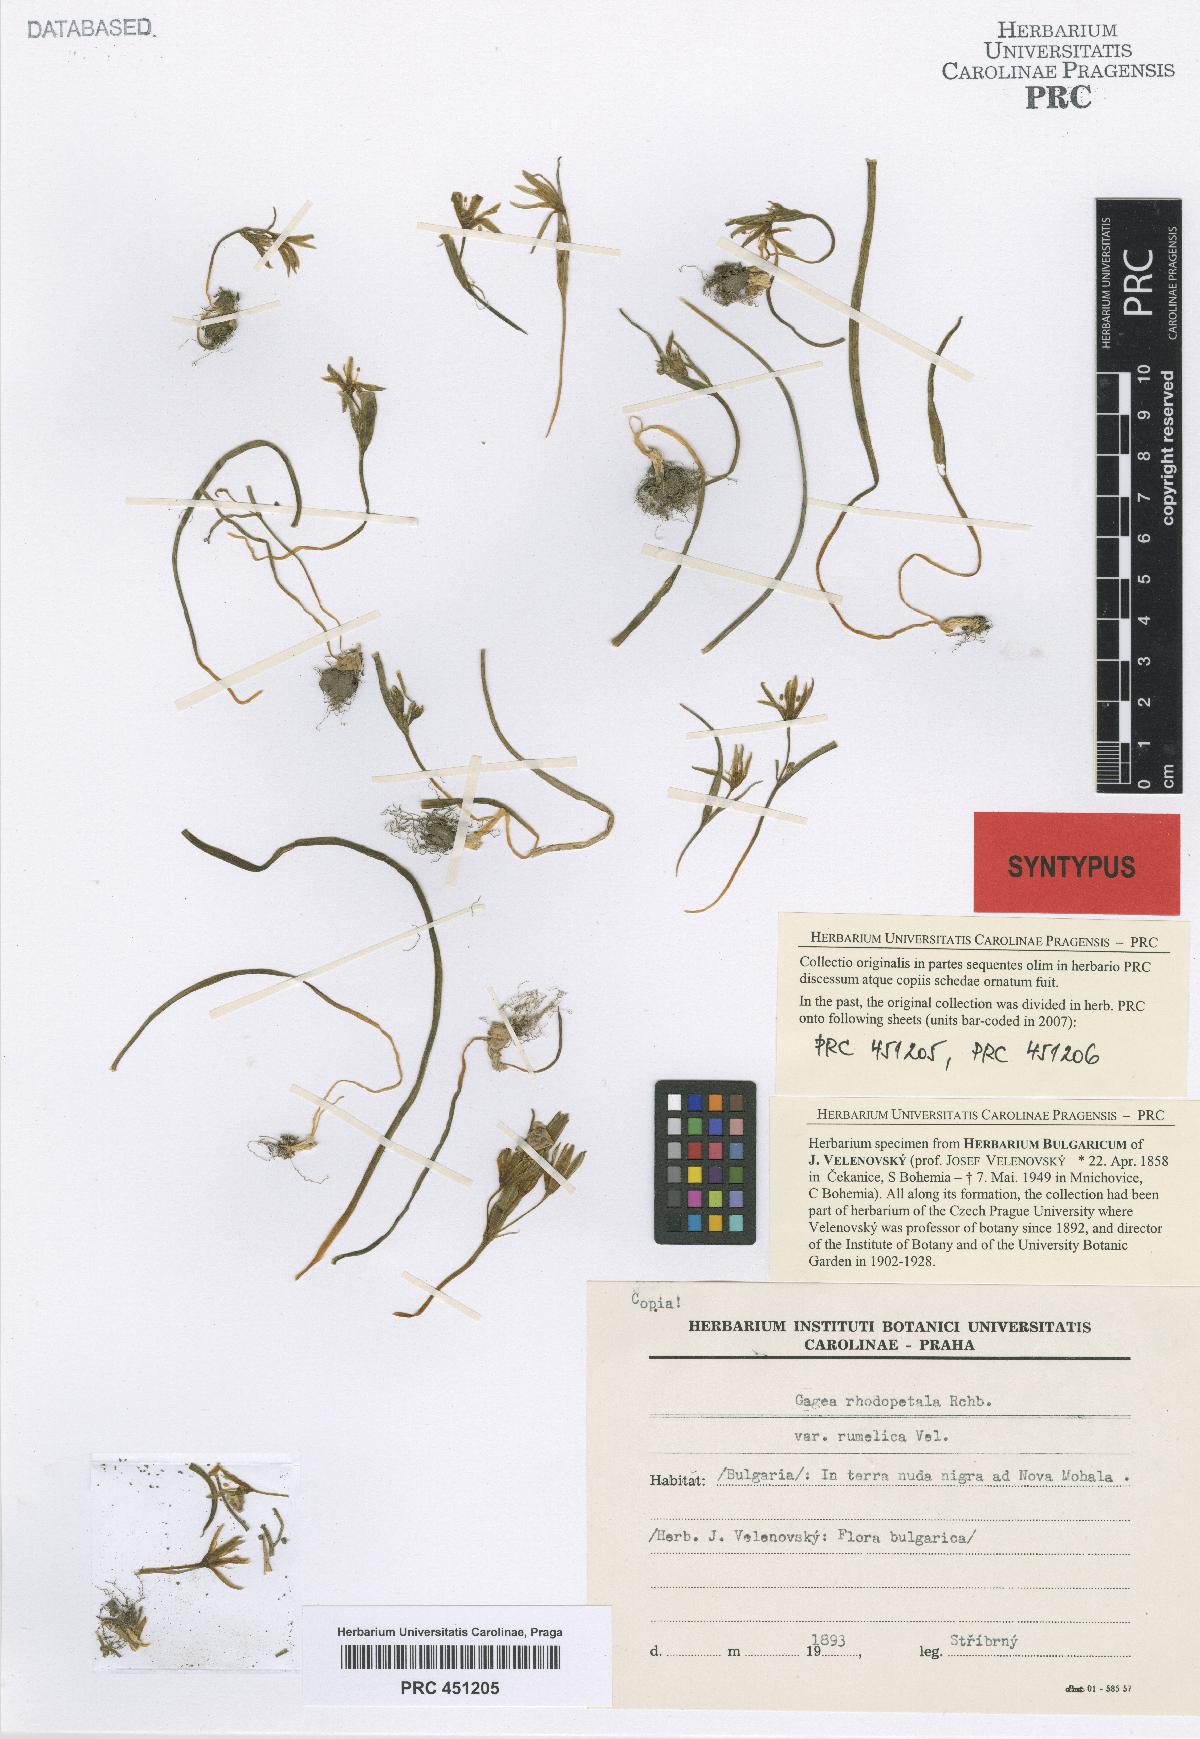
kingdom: Plantae
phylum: Tracheophyta
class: Liliopsida
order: Liliales
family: Liliaceae
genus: Gagea
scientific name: Gagea pratensis
